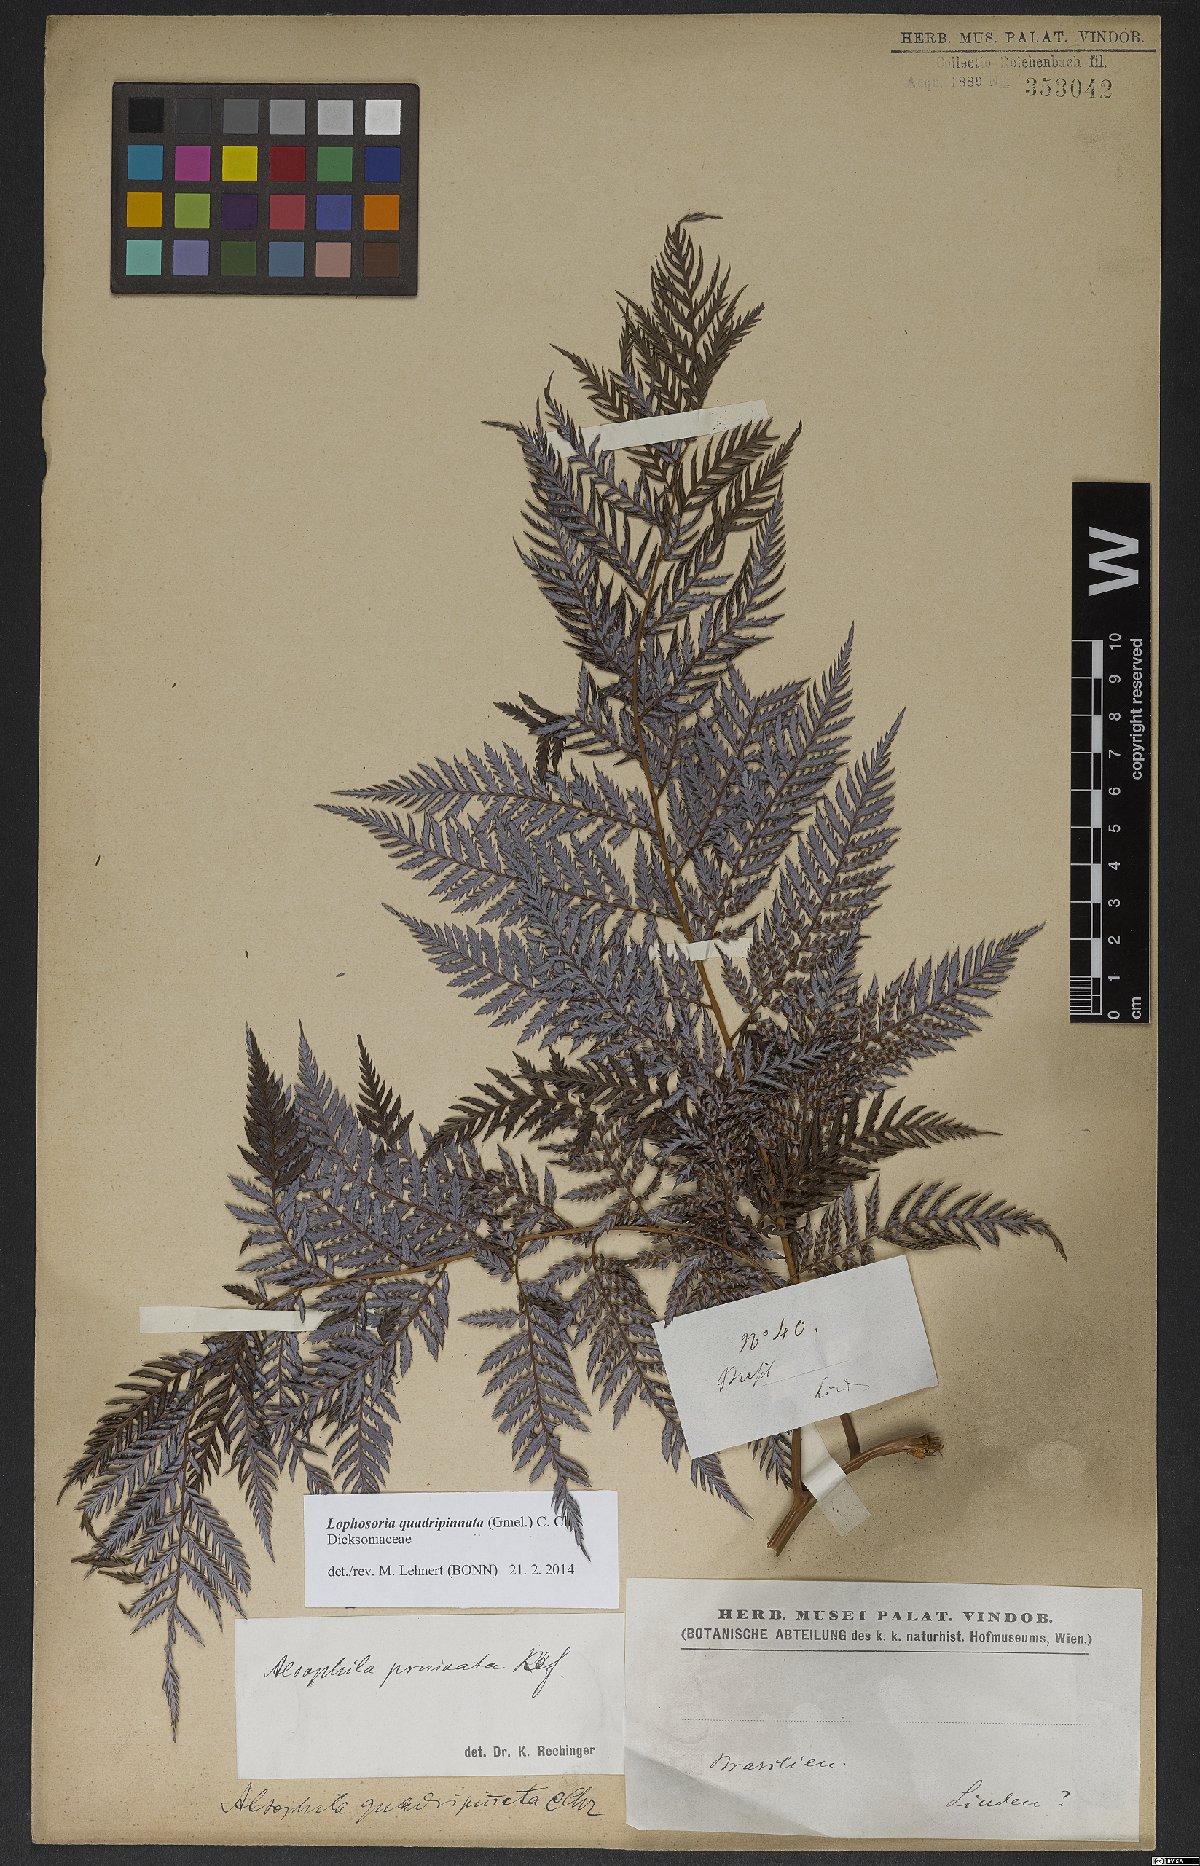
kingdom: Plantae
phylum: Tracheophyta
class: Polypodiopsida
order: Cyatheales
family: Dicksoniaceae
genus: Lophosoria
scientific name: Lophosoria quadripinnata
